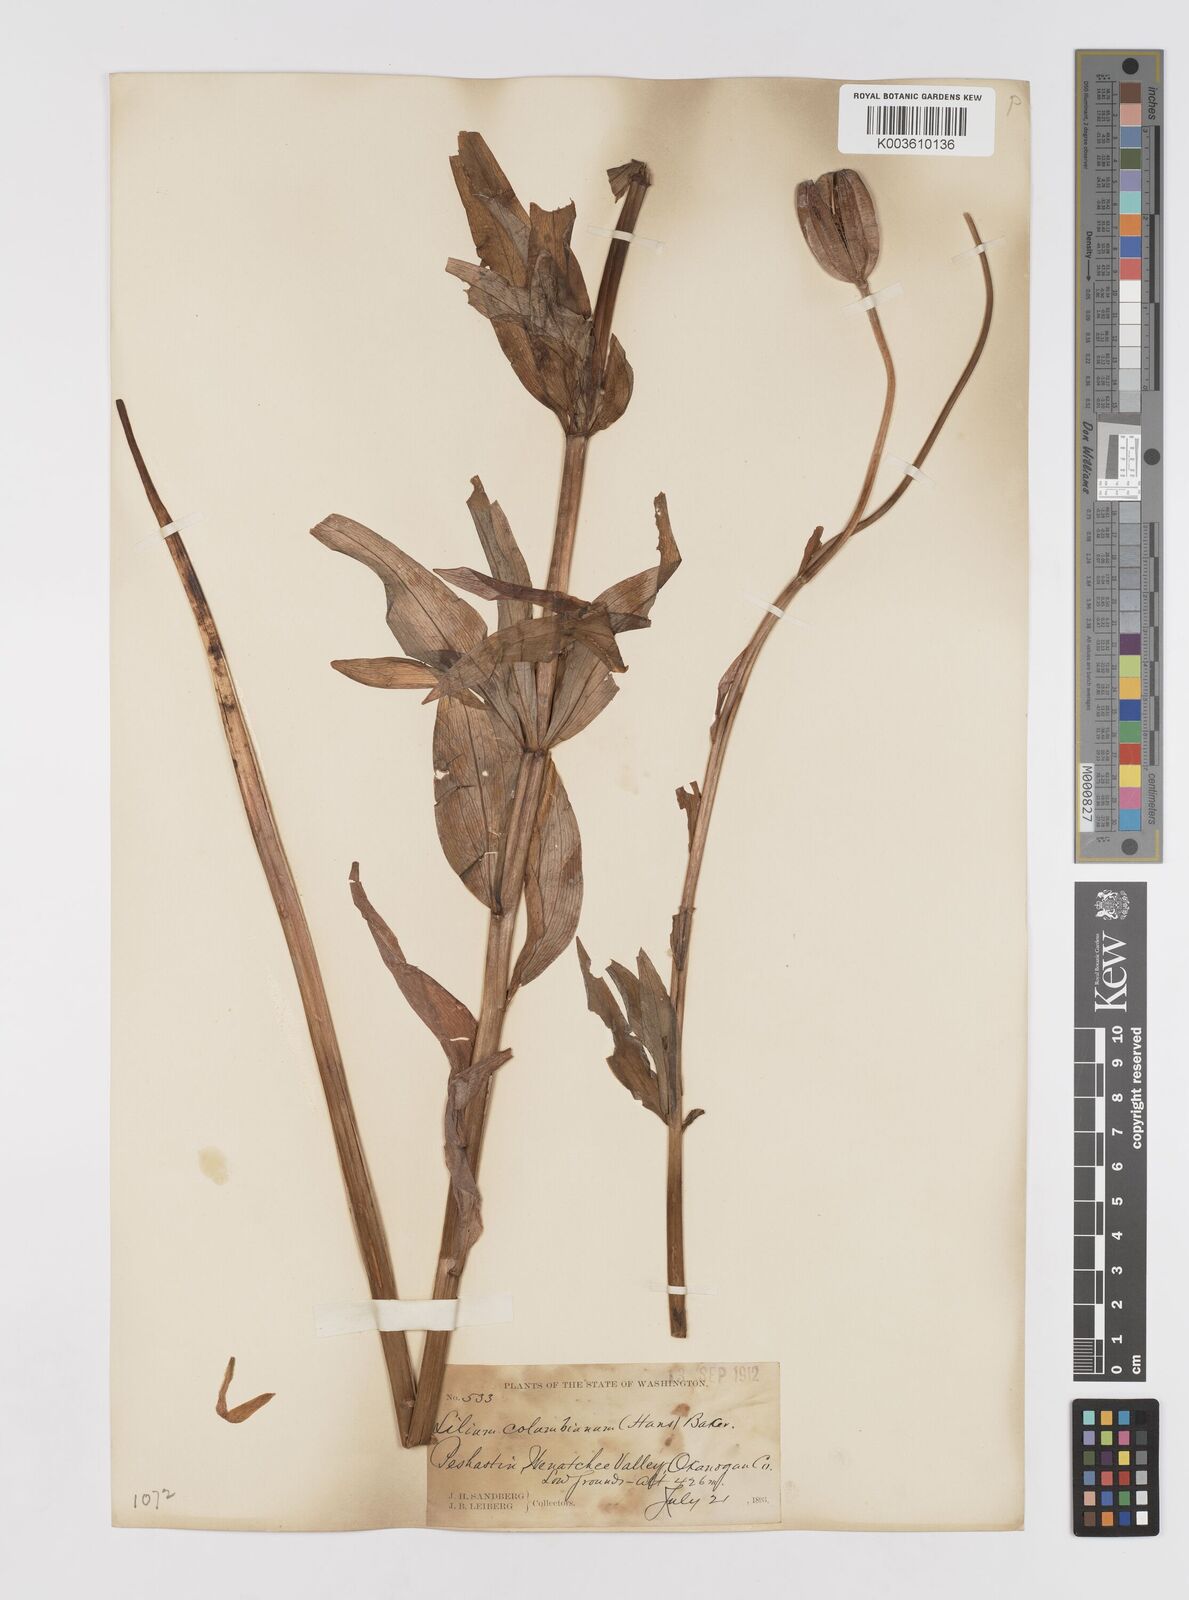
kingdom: Plantae
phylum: Tracheophyta
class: Liliopsida
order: Liliales
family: Liliaceae
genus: Lilium
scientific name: Lilium columbianum
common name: Columbia lily
